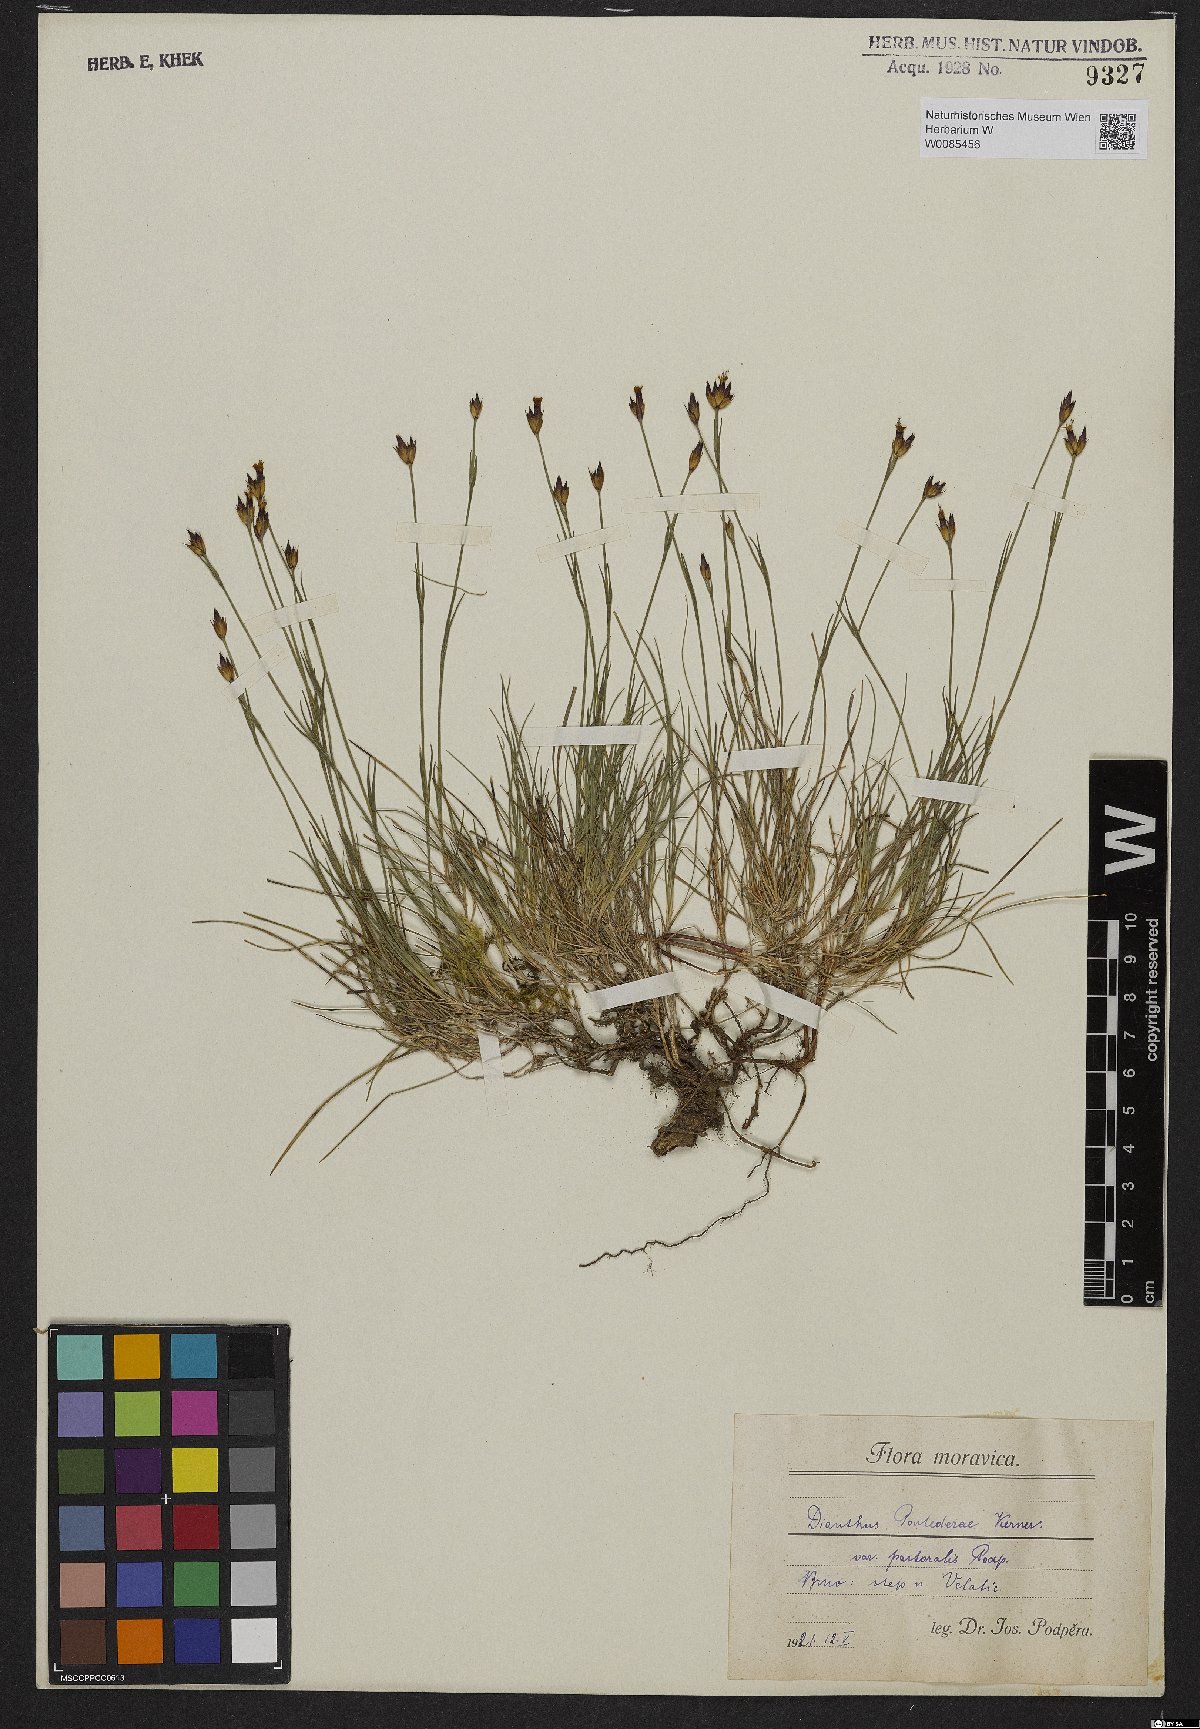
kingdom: Plantae
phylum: Tracheophyta
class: Magnoliopsida
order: Caryophyllales
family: Caryophyllaceae
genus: Dianthus
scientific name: Dianthus pontederae
